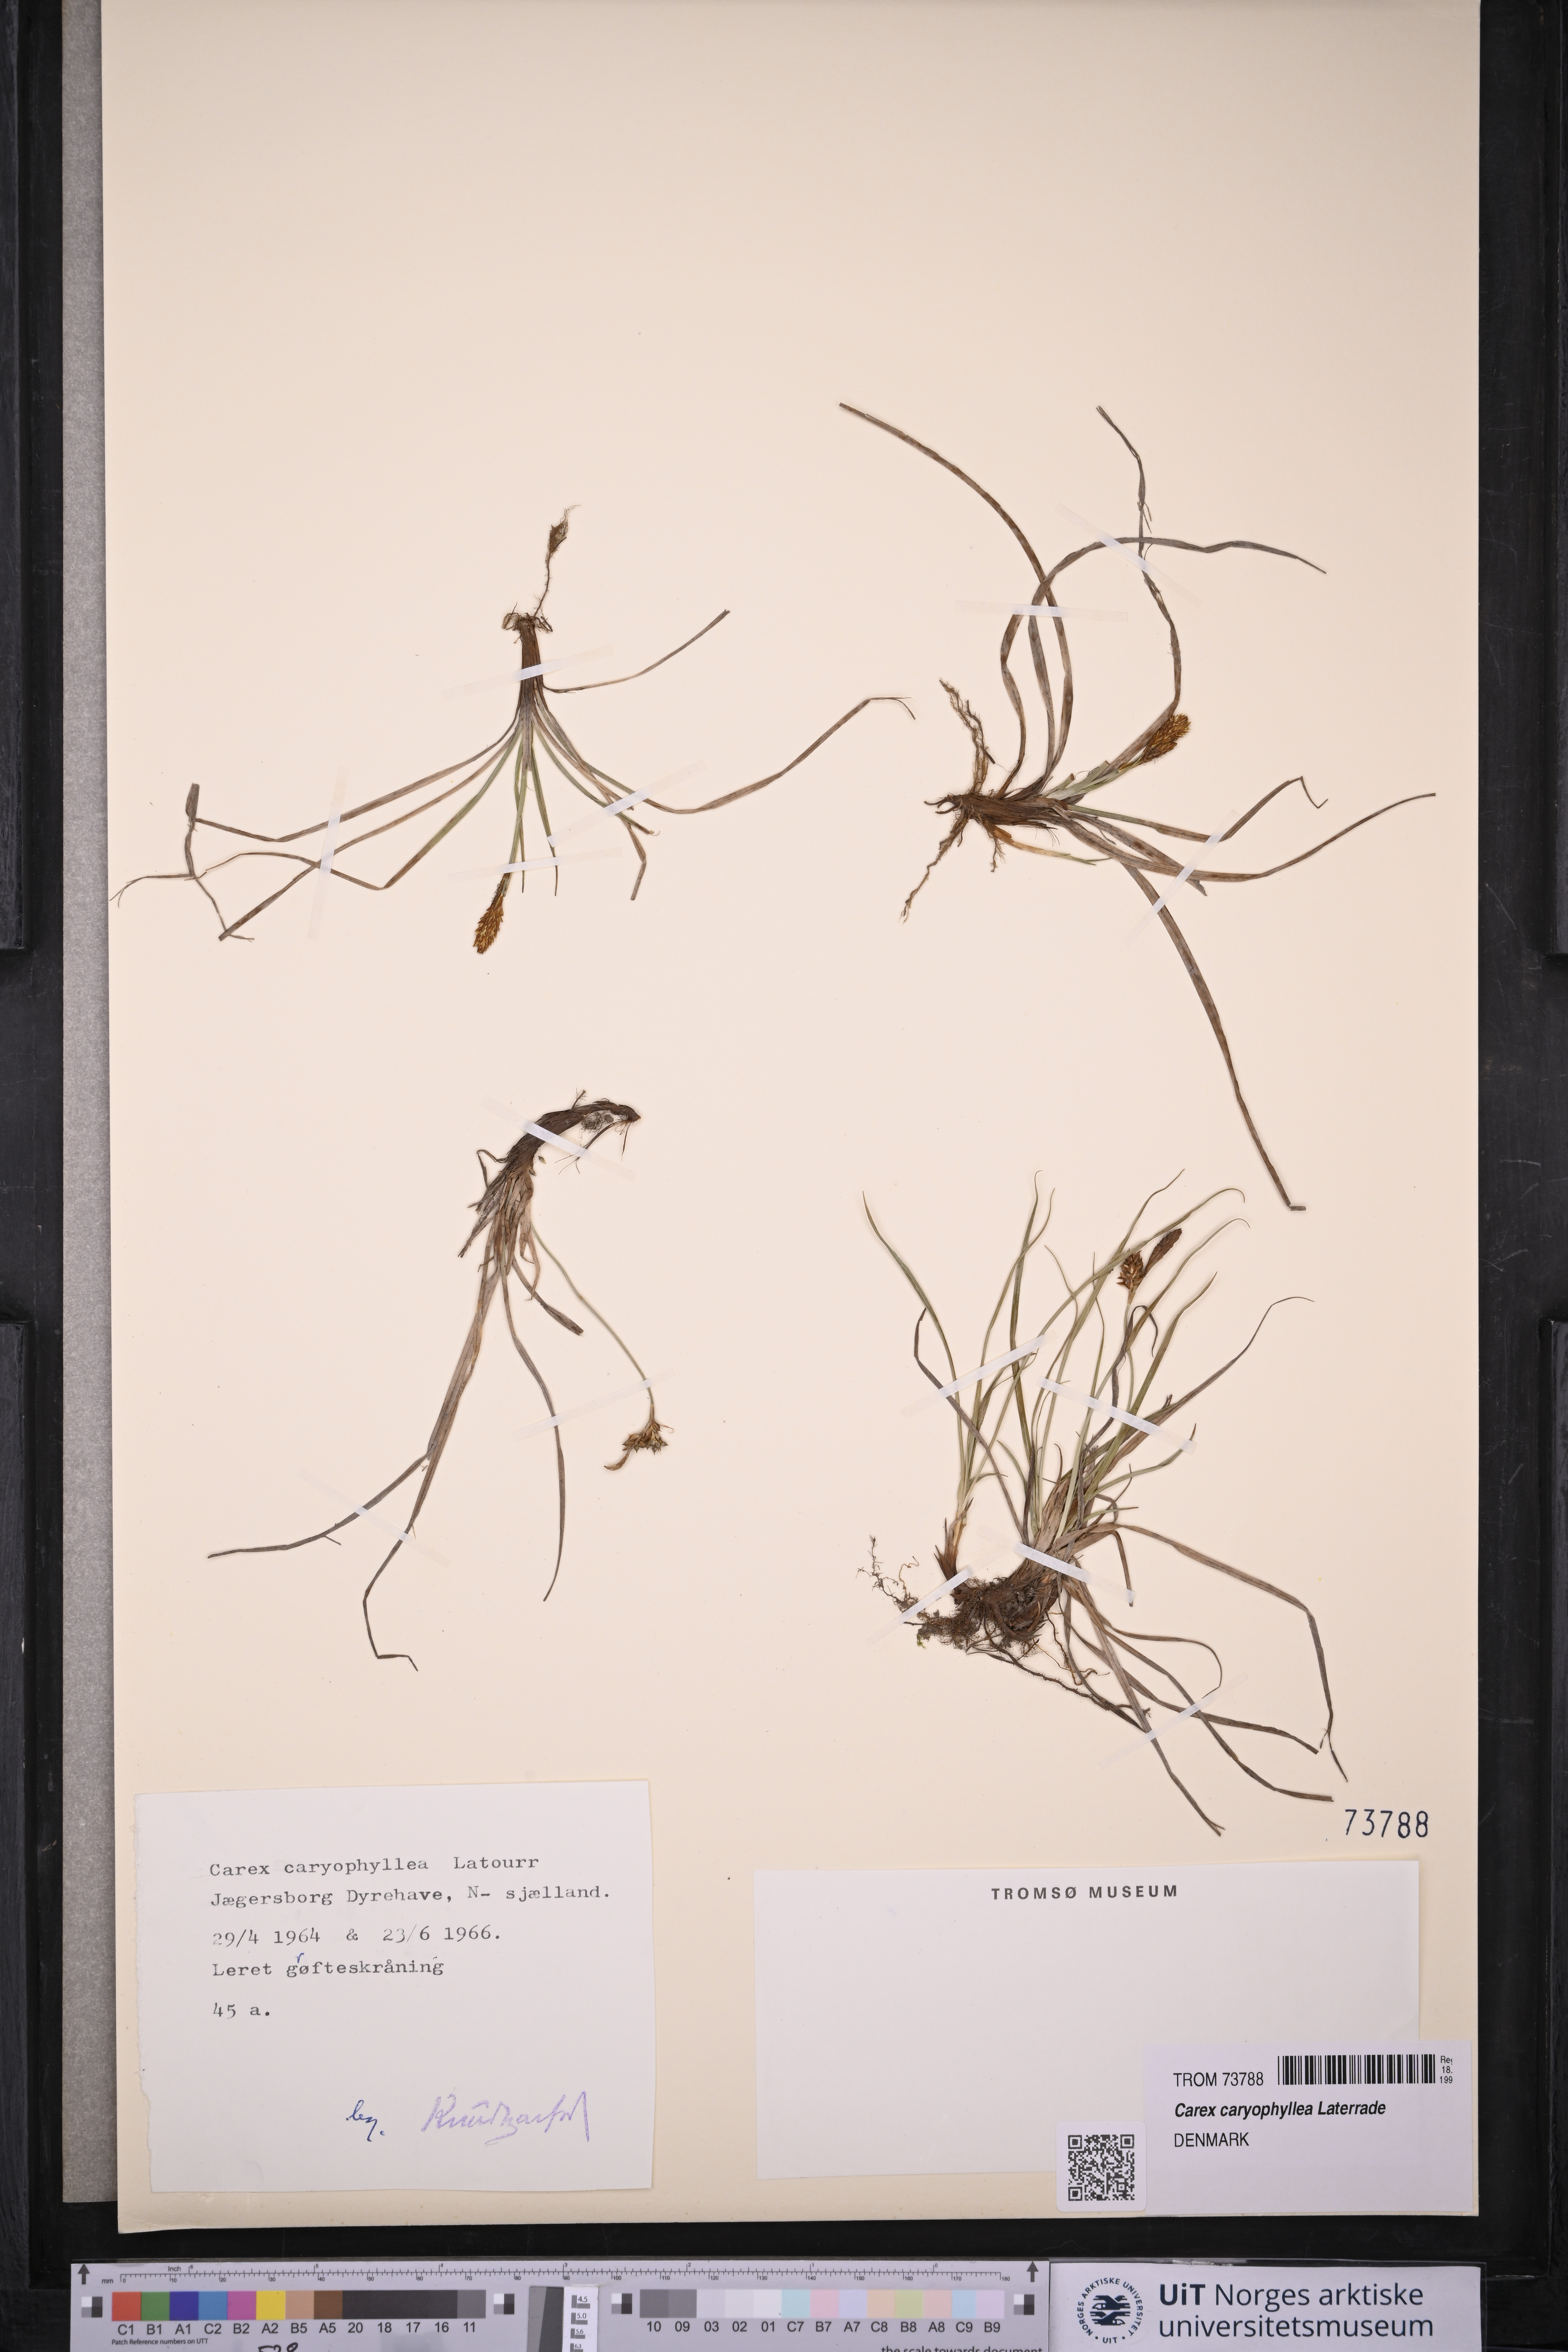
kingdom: Plantae
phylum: Tracheophyta
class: Liliopsida
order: Poales
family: Cyperaceae
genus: Carex
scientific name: Carex caryophyllea
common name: Spring sedge
